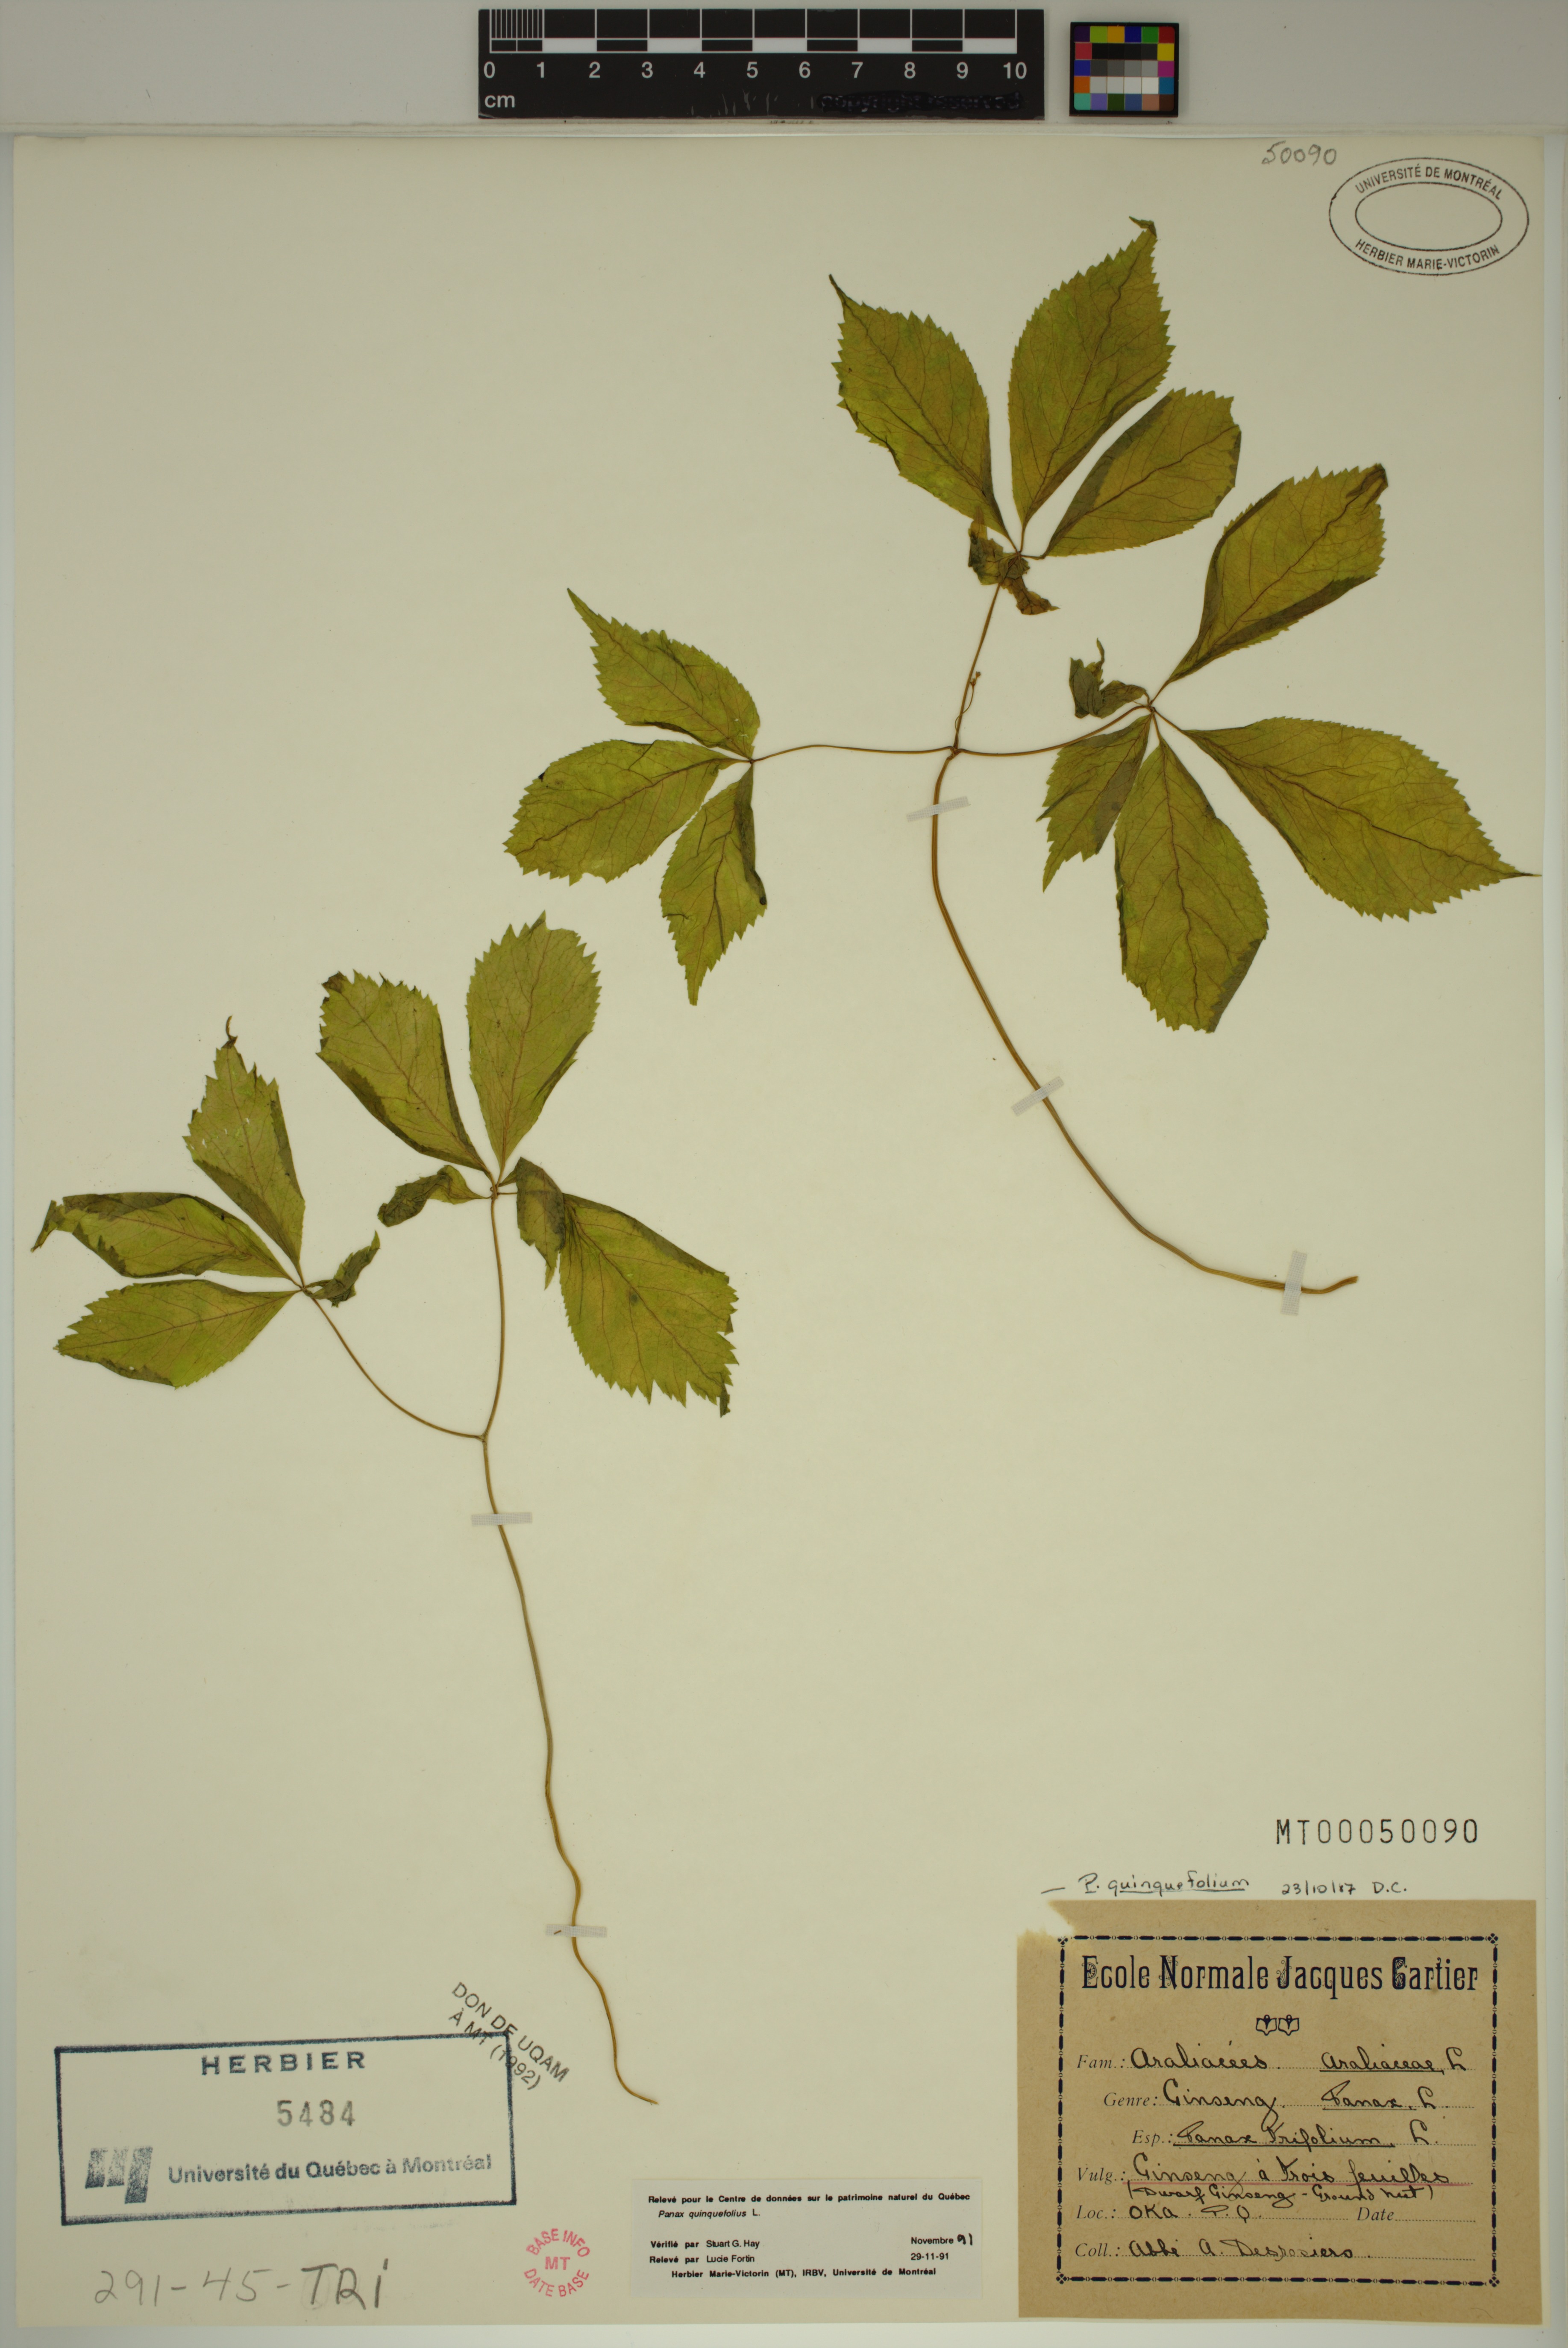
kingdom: Plantae
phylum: Tracheophyta
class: Magnoliopsida
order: Apiales
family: Araliaceae
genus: Panax
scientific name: Panax quinquefolius
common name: American ginseng
